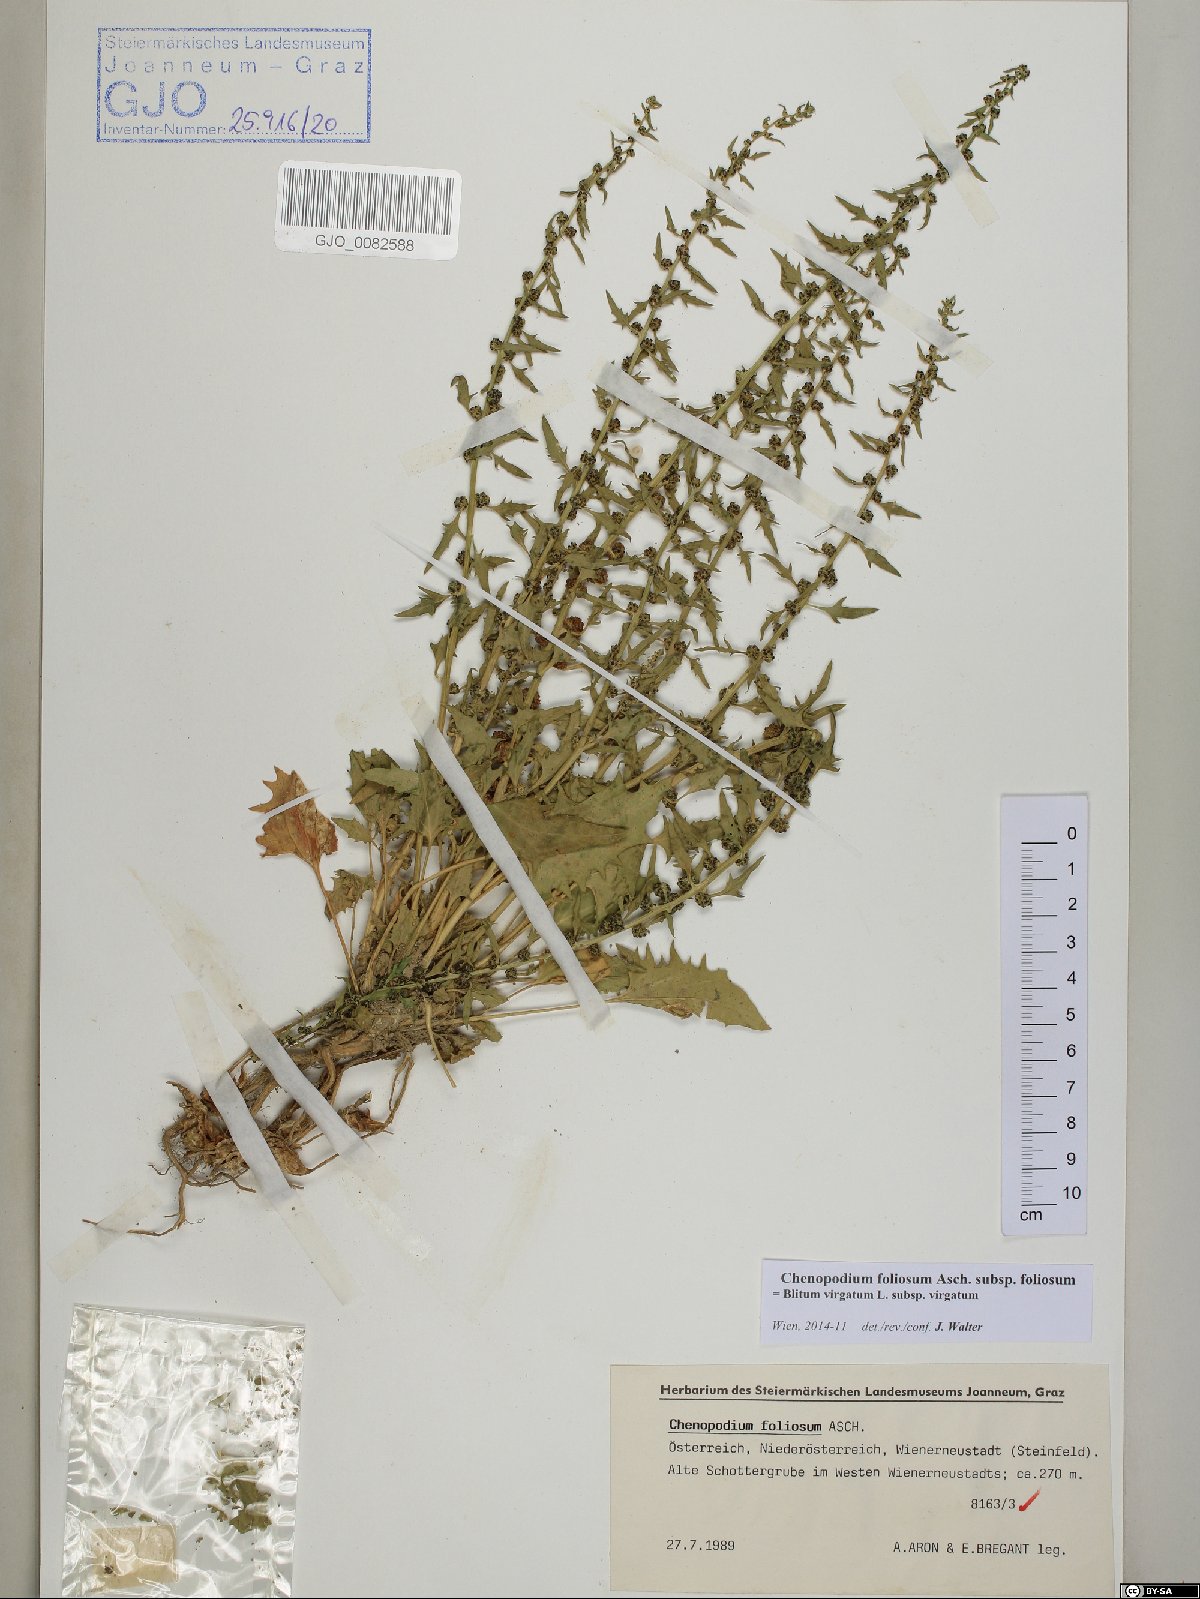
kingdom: Plantae
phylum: Tracheophyta
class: Magnoliopsida
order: Caryophyllales
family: Amaranthaceae
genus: Blitum
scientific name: Blitum virgatum
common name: Strawberry goosefoot
